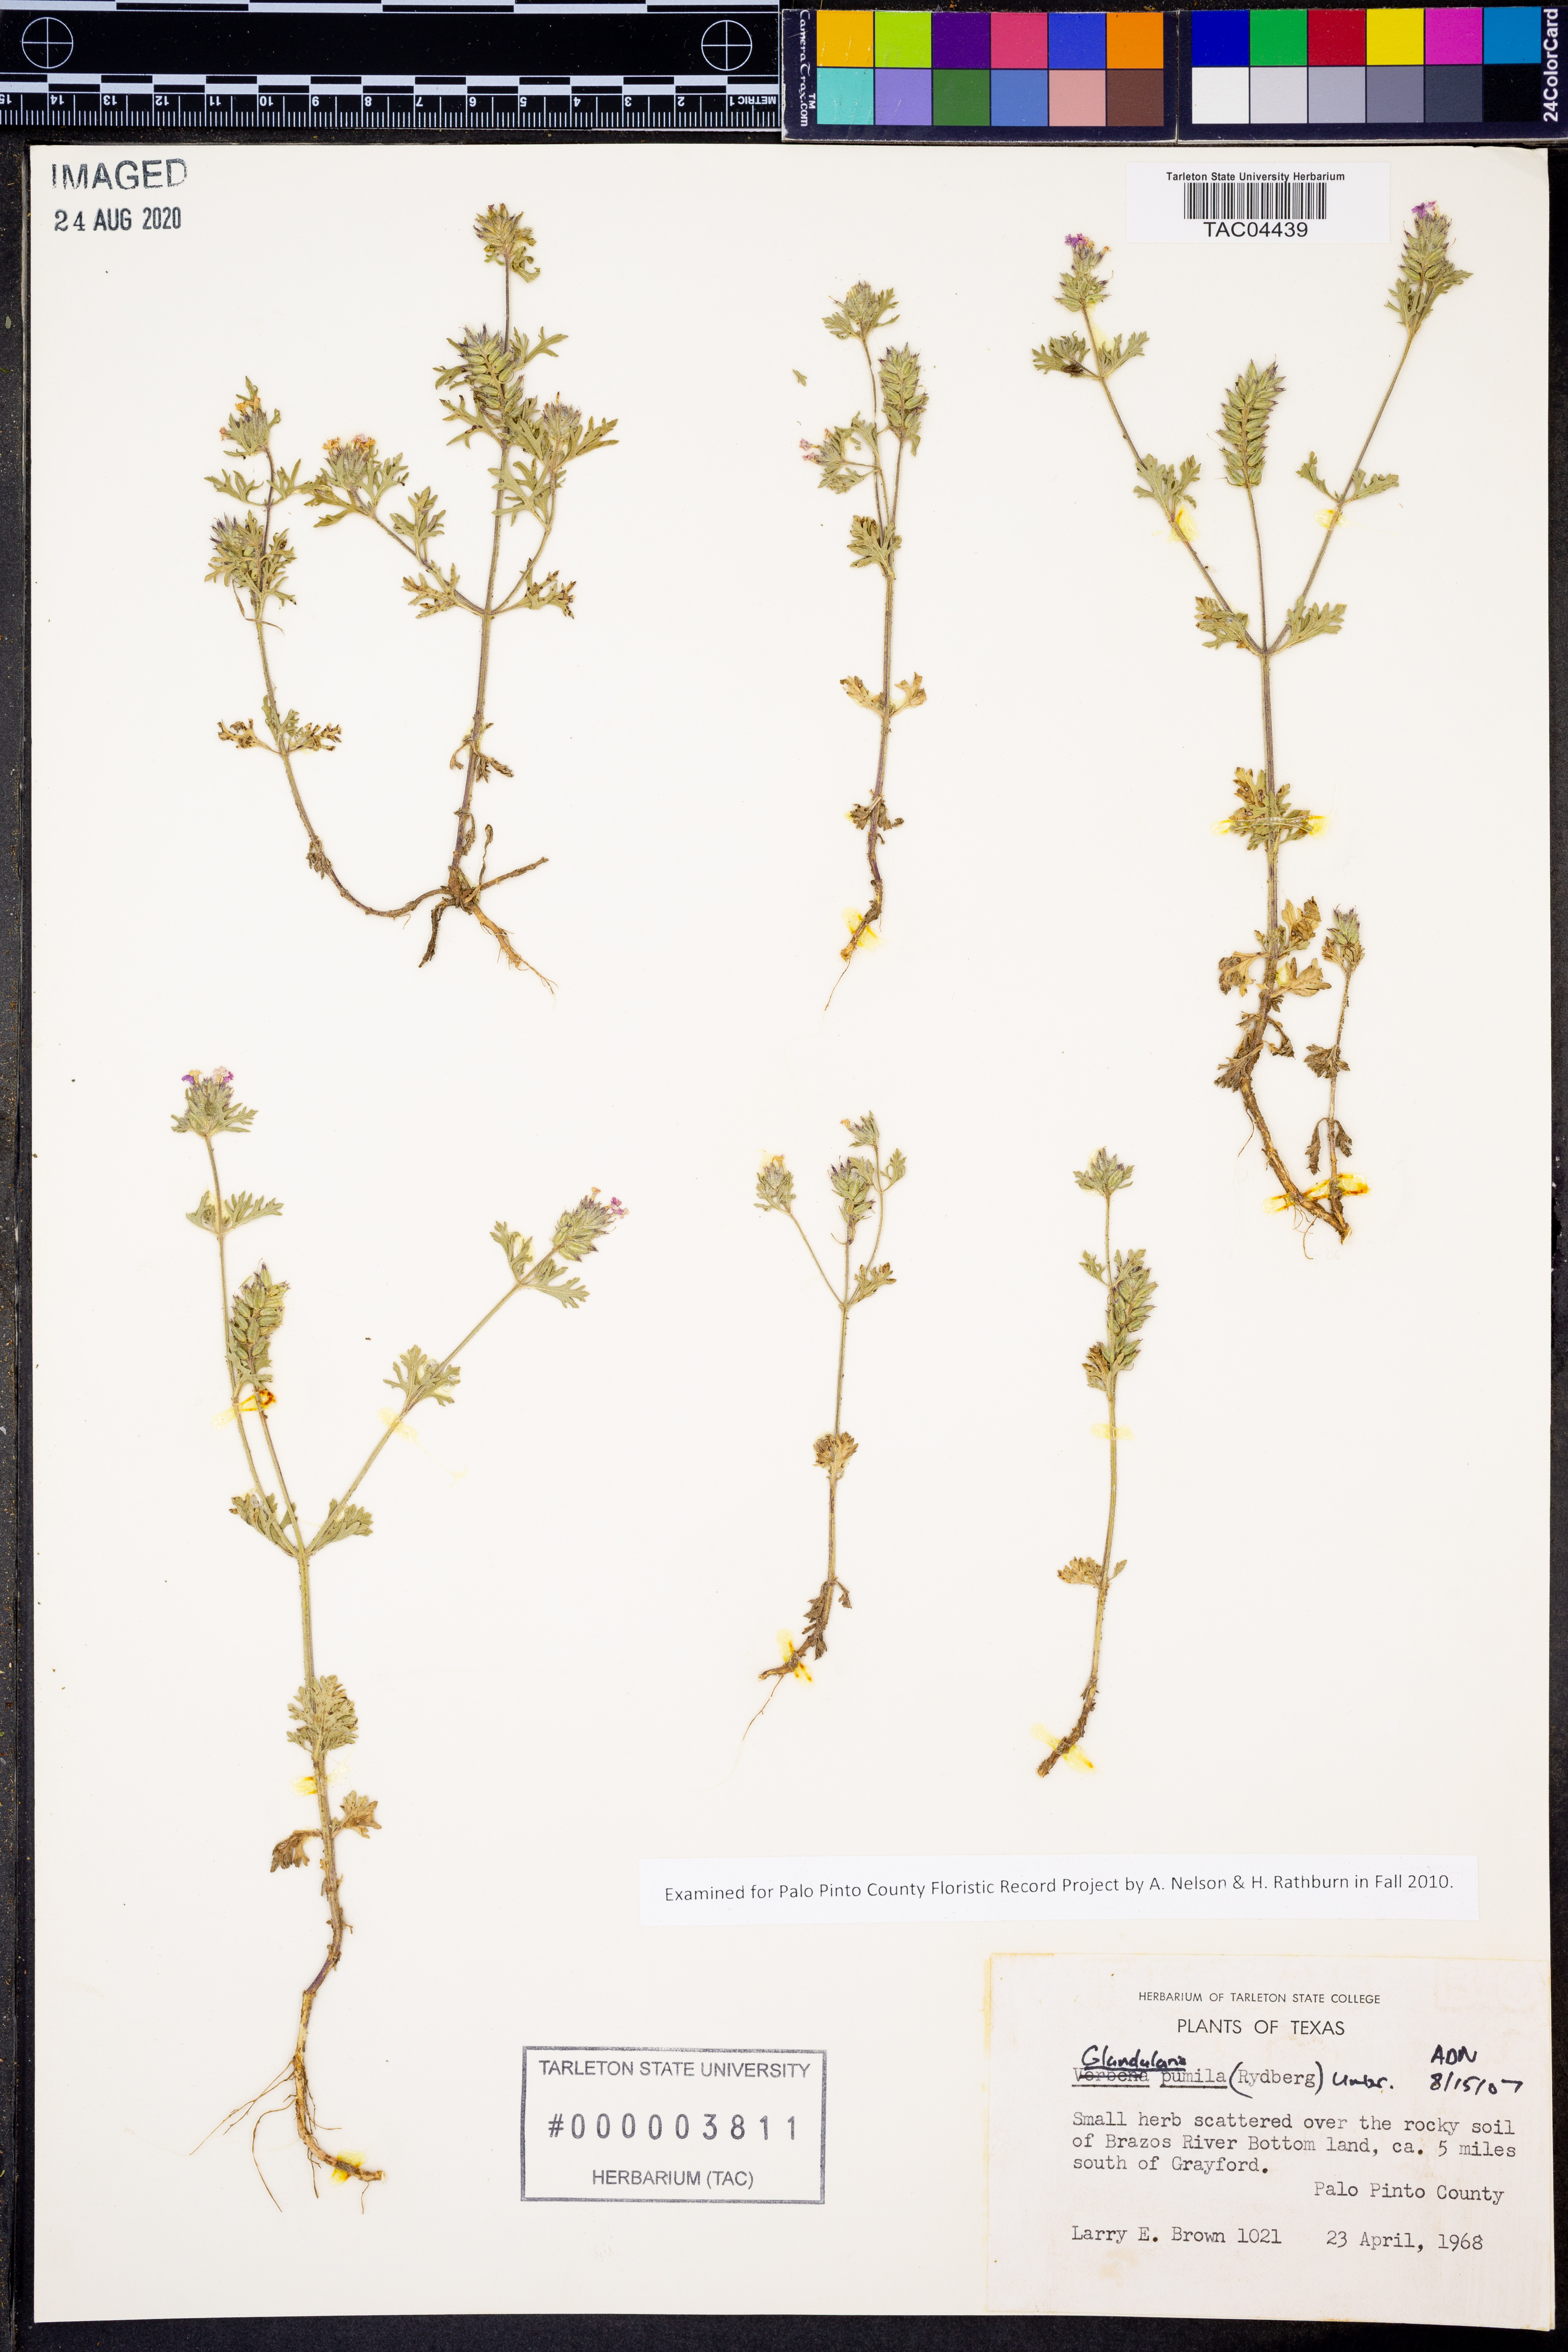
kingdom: Plantae
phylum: Tracheophyta
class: Magnoliopsida
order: Lamiales
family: Verbenaceae
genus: Verbena
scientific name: Verbena pumila
